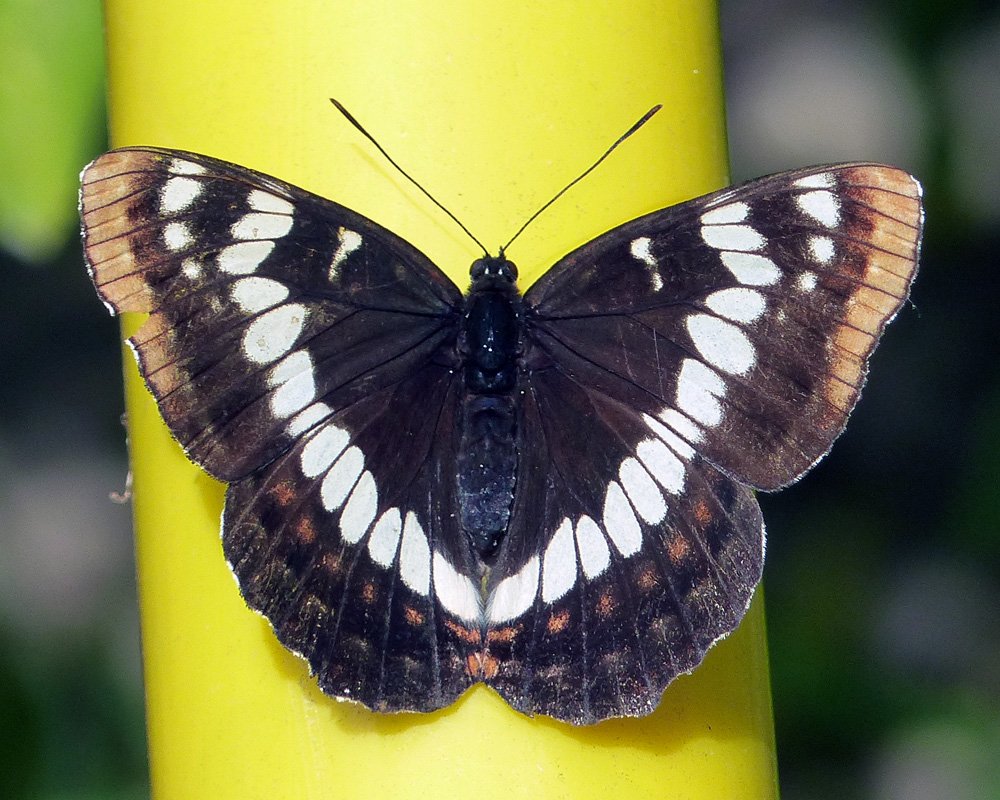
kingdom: Animalia
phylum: Arthropoda
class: Insecta
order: Lepidoptera
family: Nymphalidae
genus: Limenitis
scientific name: Limenitis lorquini
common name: Lorquin's Admiral
